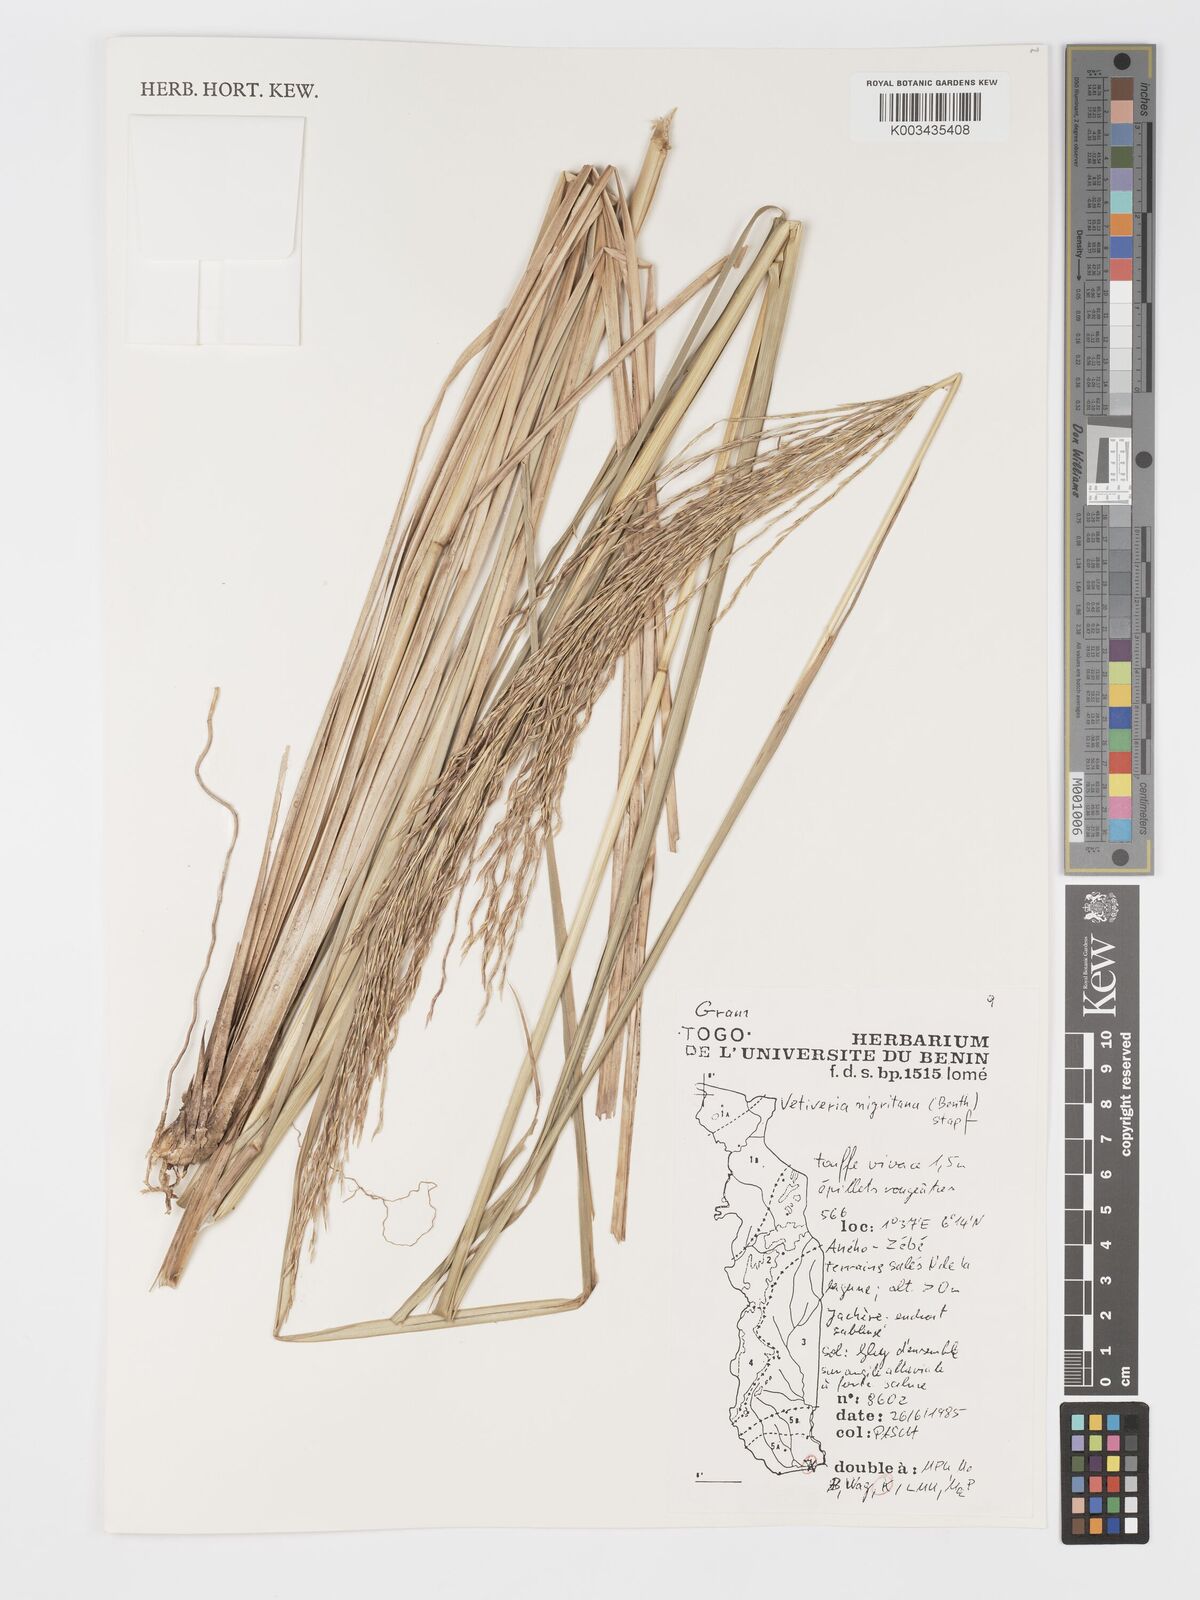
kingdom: Plantae
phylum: Tracheophyta
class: Liliopsida
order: Poales
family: Poaceae
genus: Chrysopogon
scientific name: Chrysopogon nigritanus
